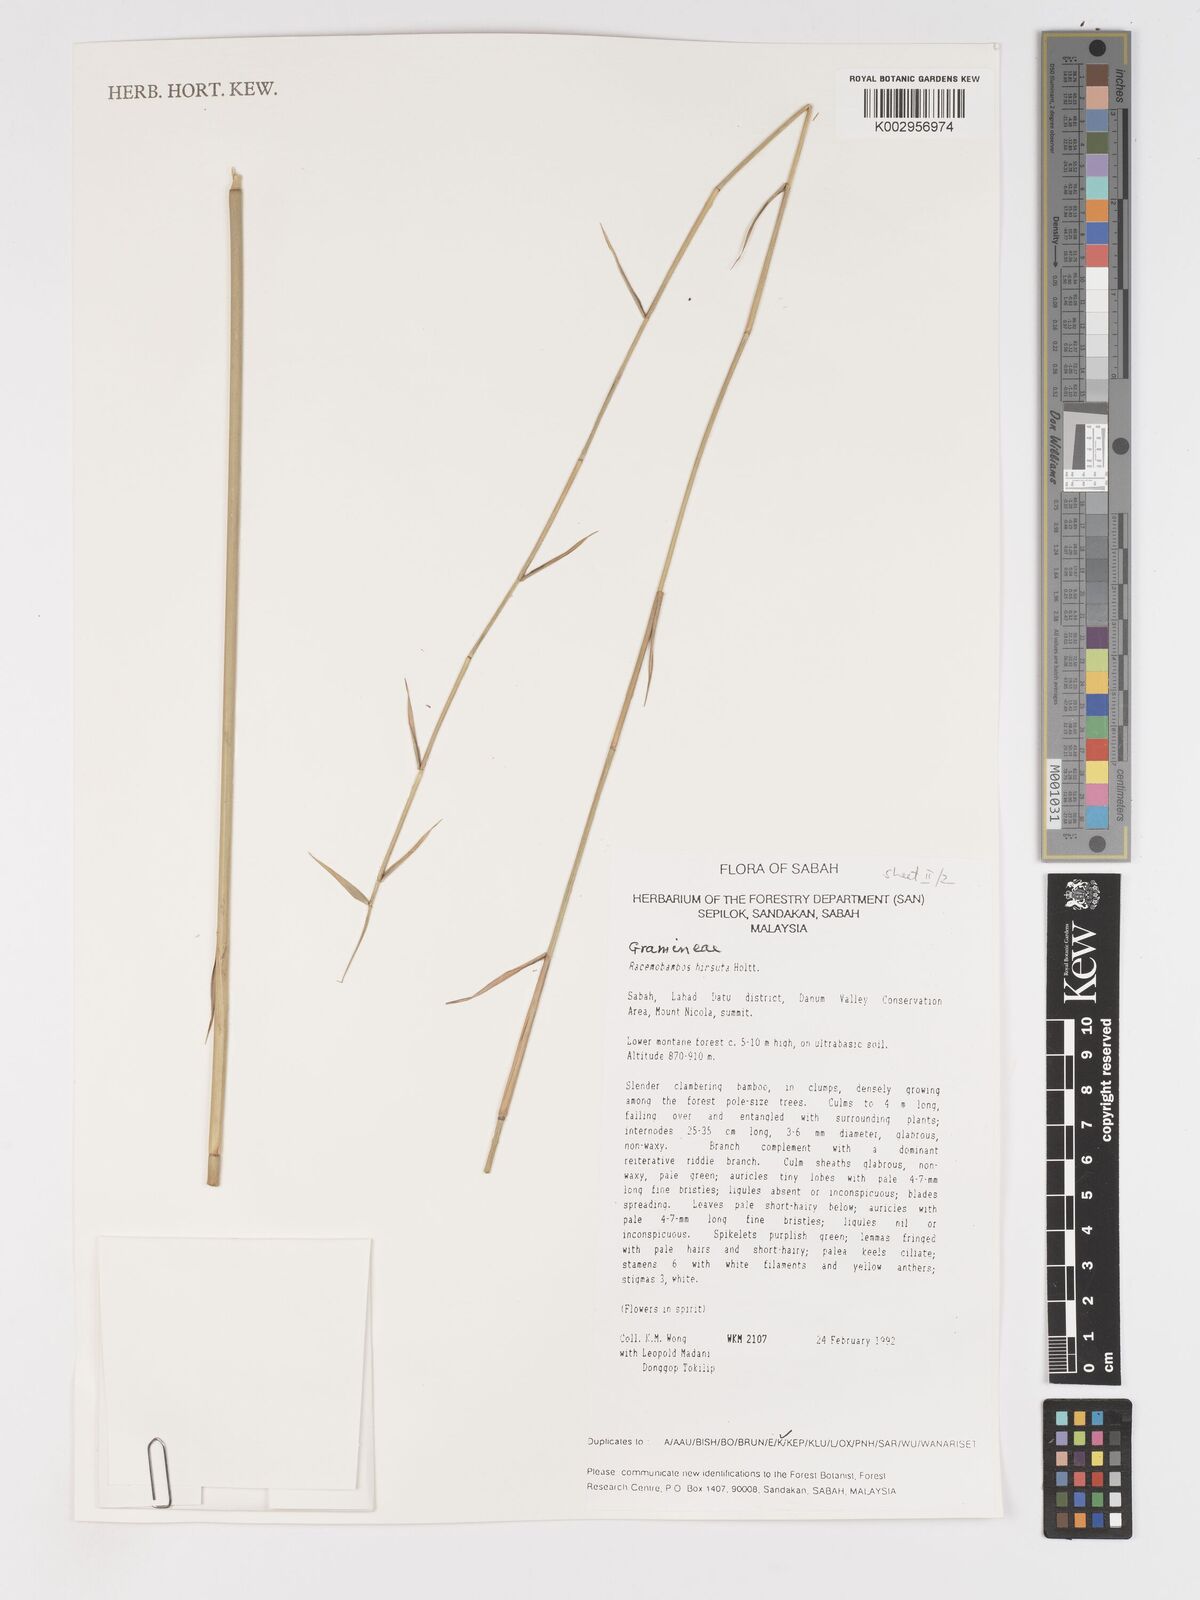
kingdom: Plantae
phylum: Tracheophyta
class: Liliopsida
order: Poales
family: Poaceae
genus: Racemobambos
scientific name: Racemobambos hirsuta
